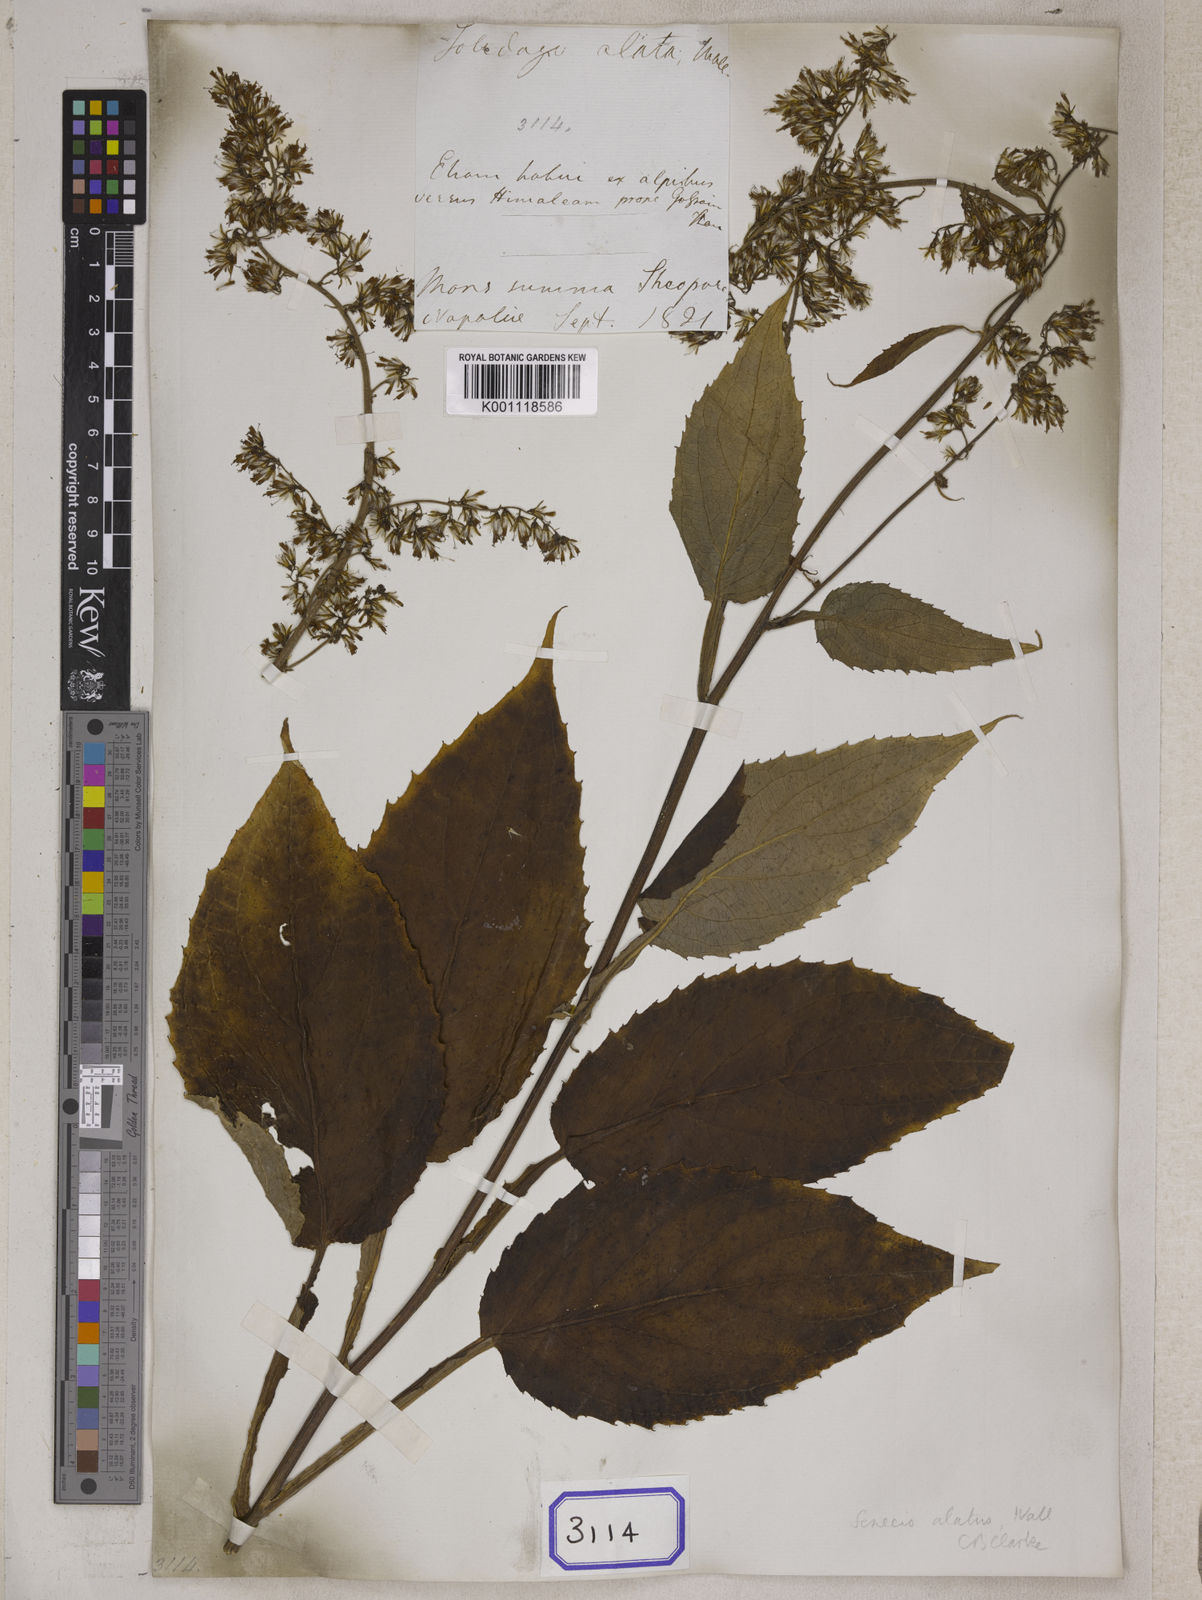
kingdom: Plantae
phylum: Tracheophyta
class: Magnoliopsida
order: Asterales
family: Asteraceae
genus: Synotis
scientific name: Synotis alata
